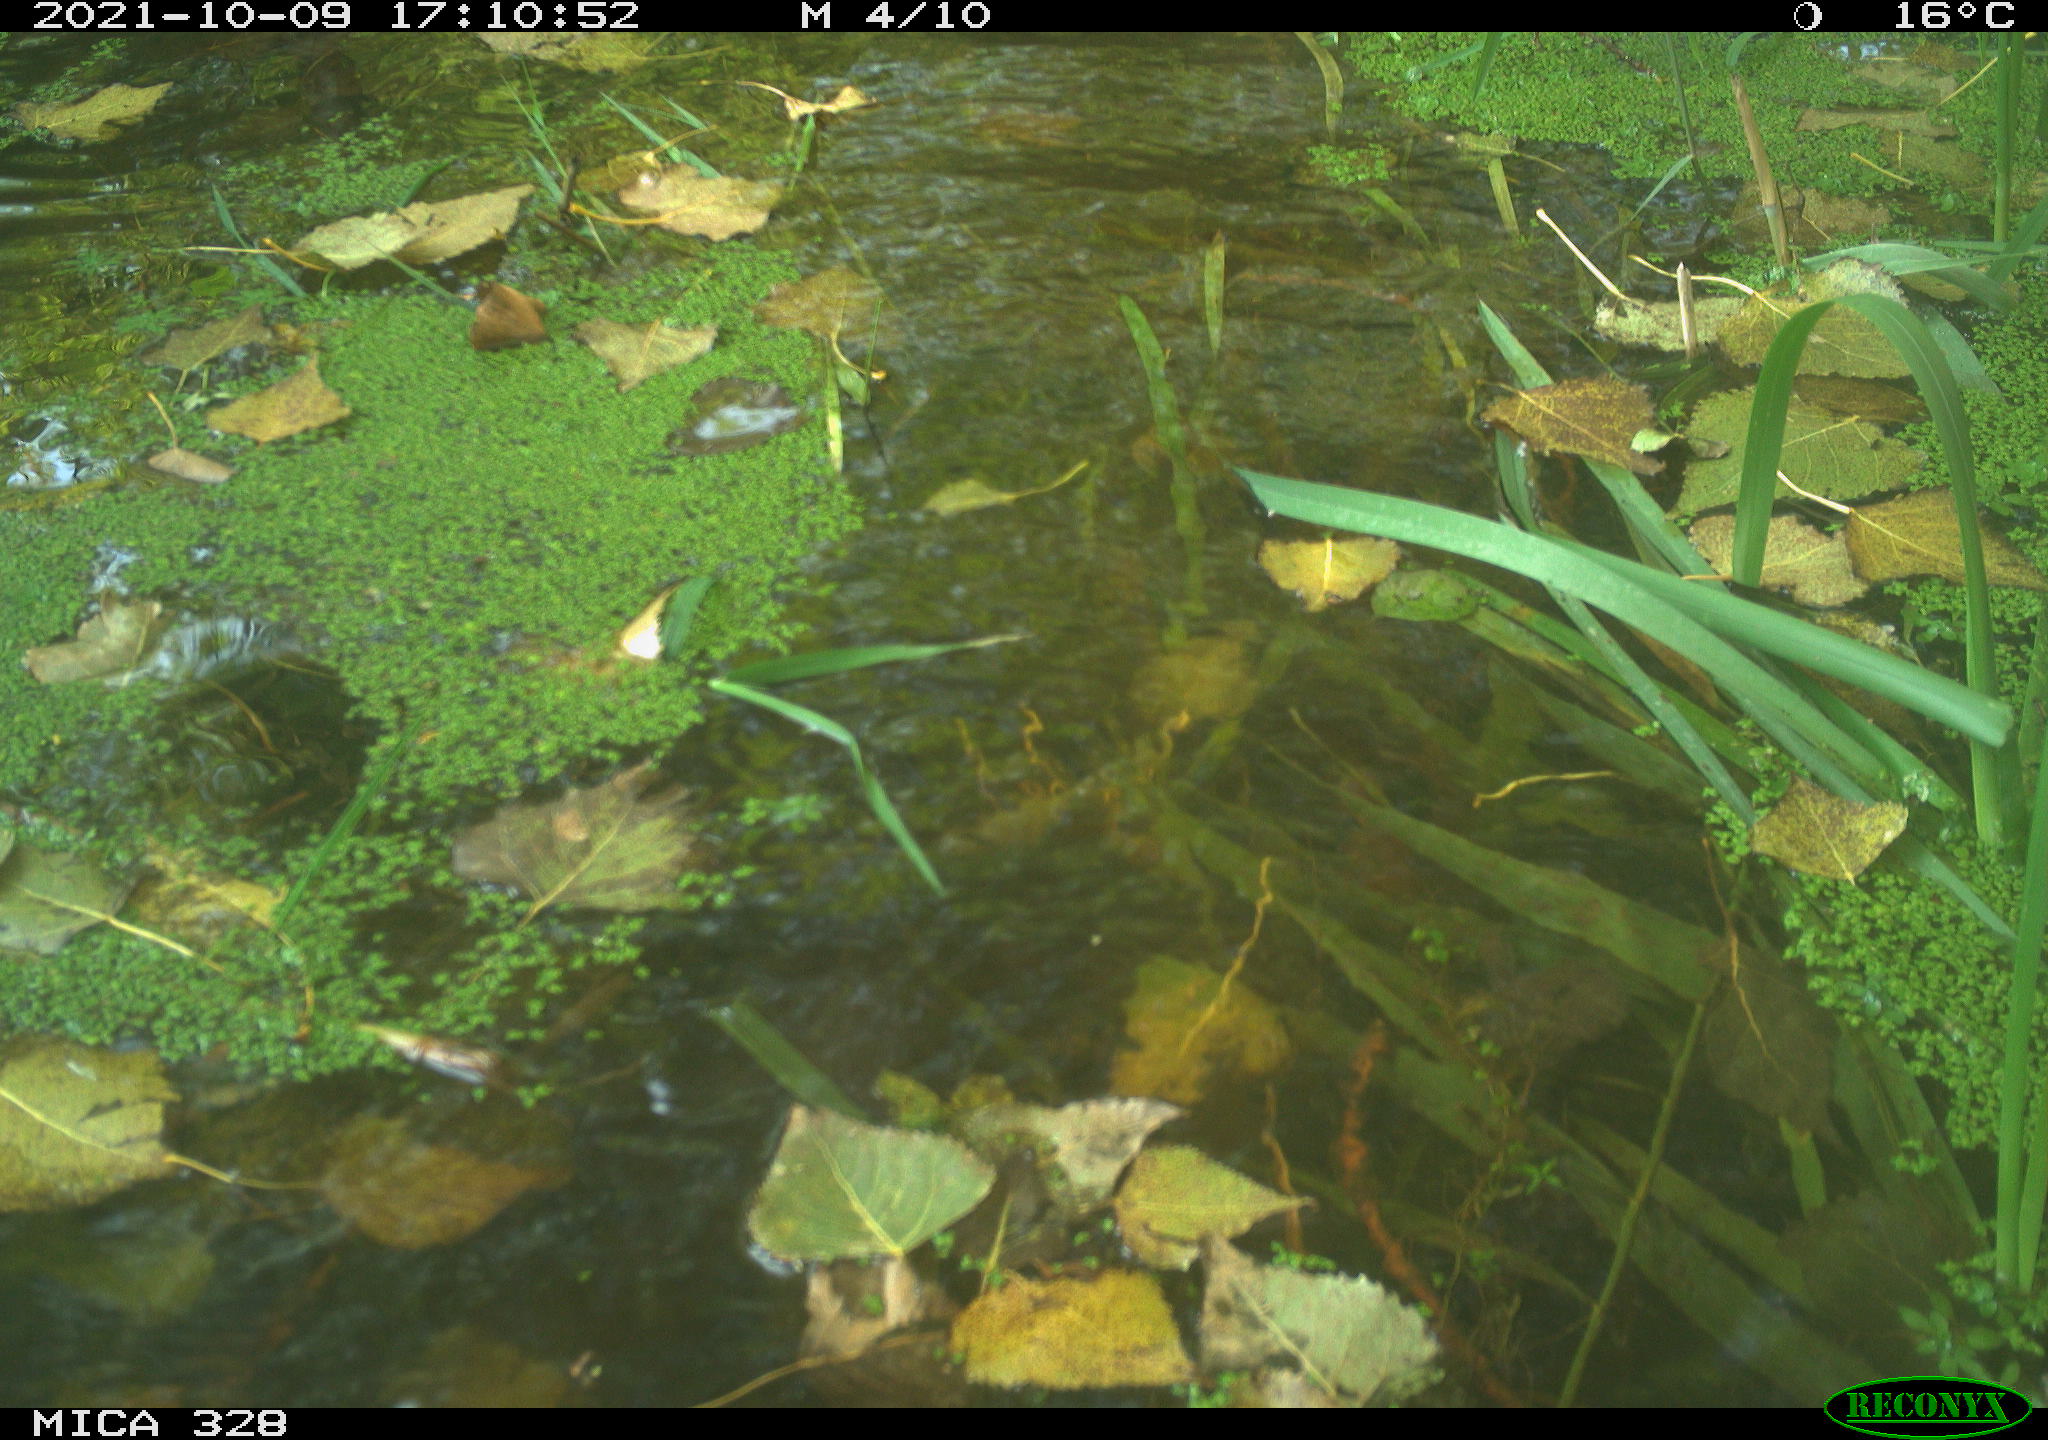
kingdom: Animalia
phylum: Chordata
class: Mammalia
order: Rodentia
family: Cricetidae
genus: Ondatra
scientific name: Ondatra zibethicus
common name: Muskrat
